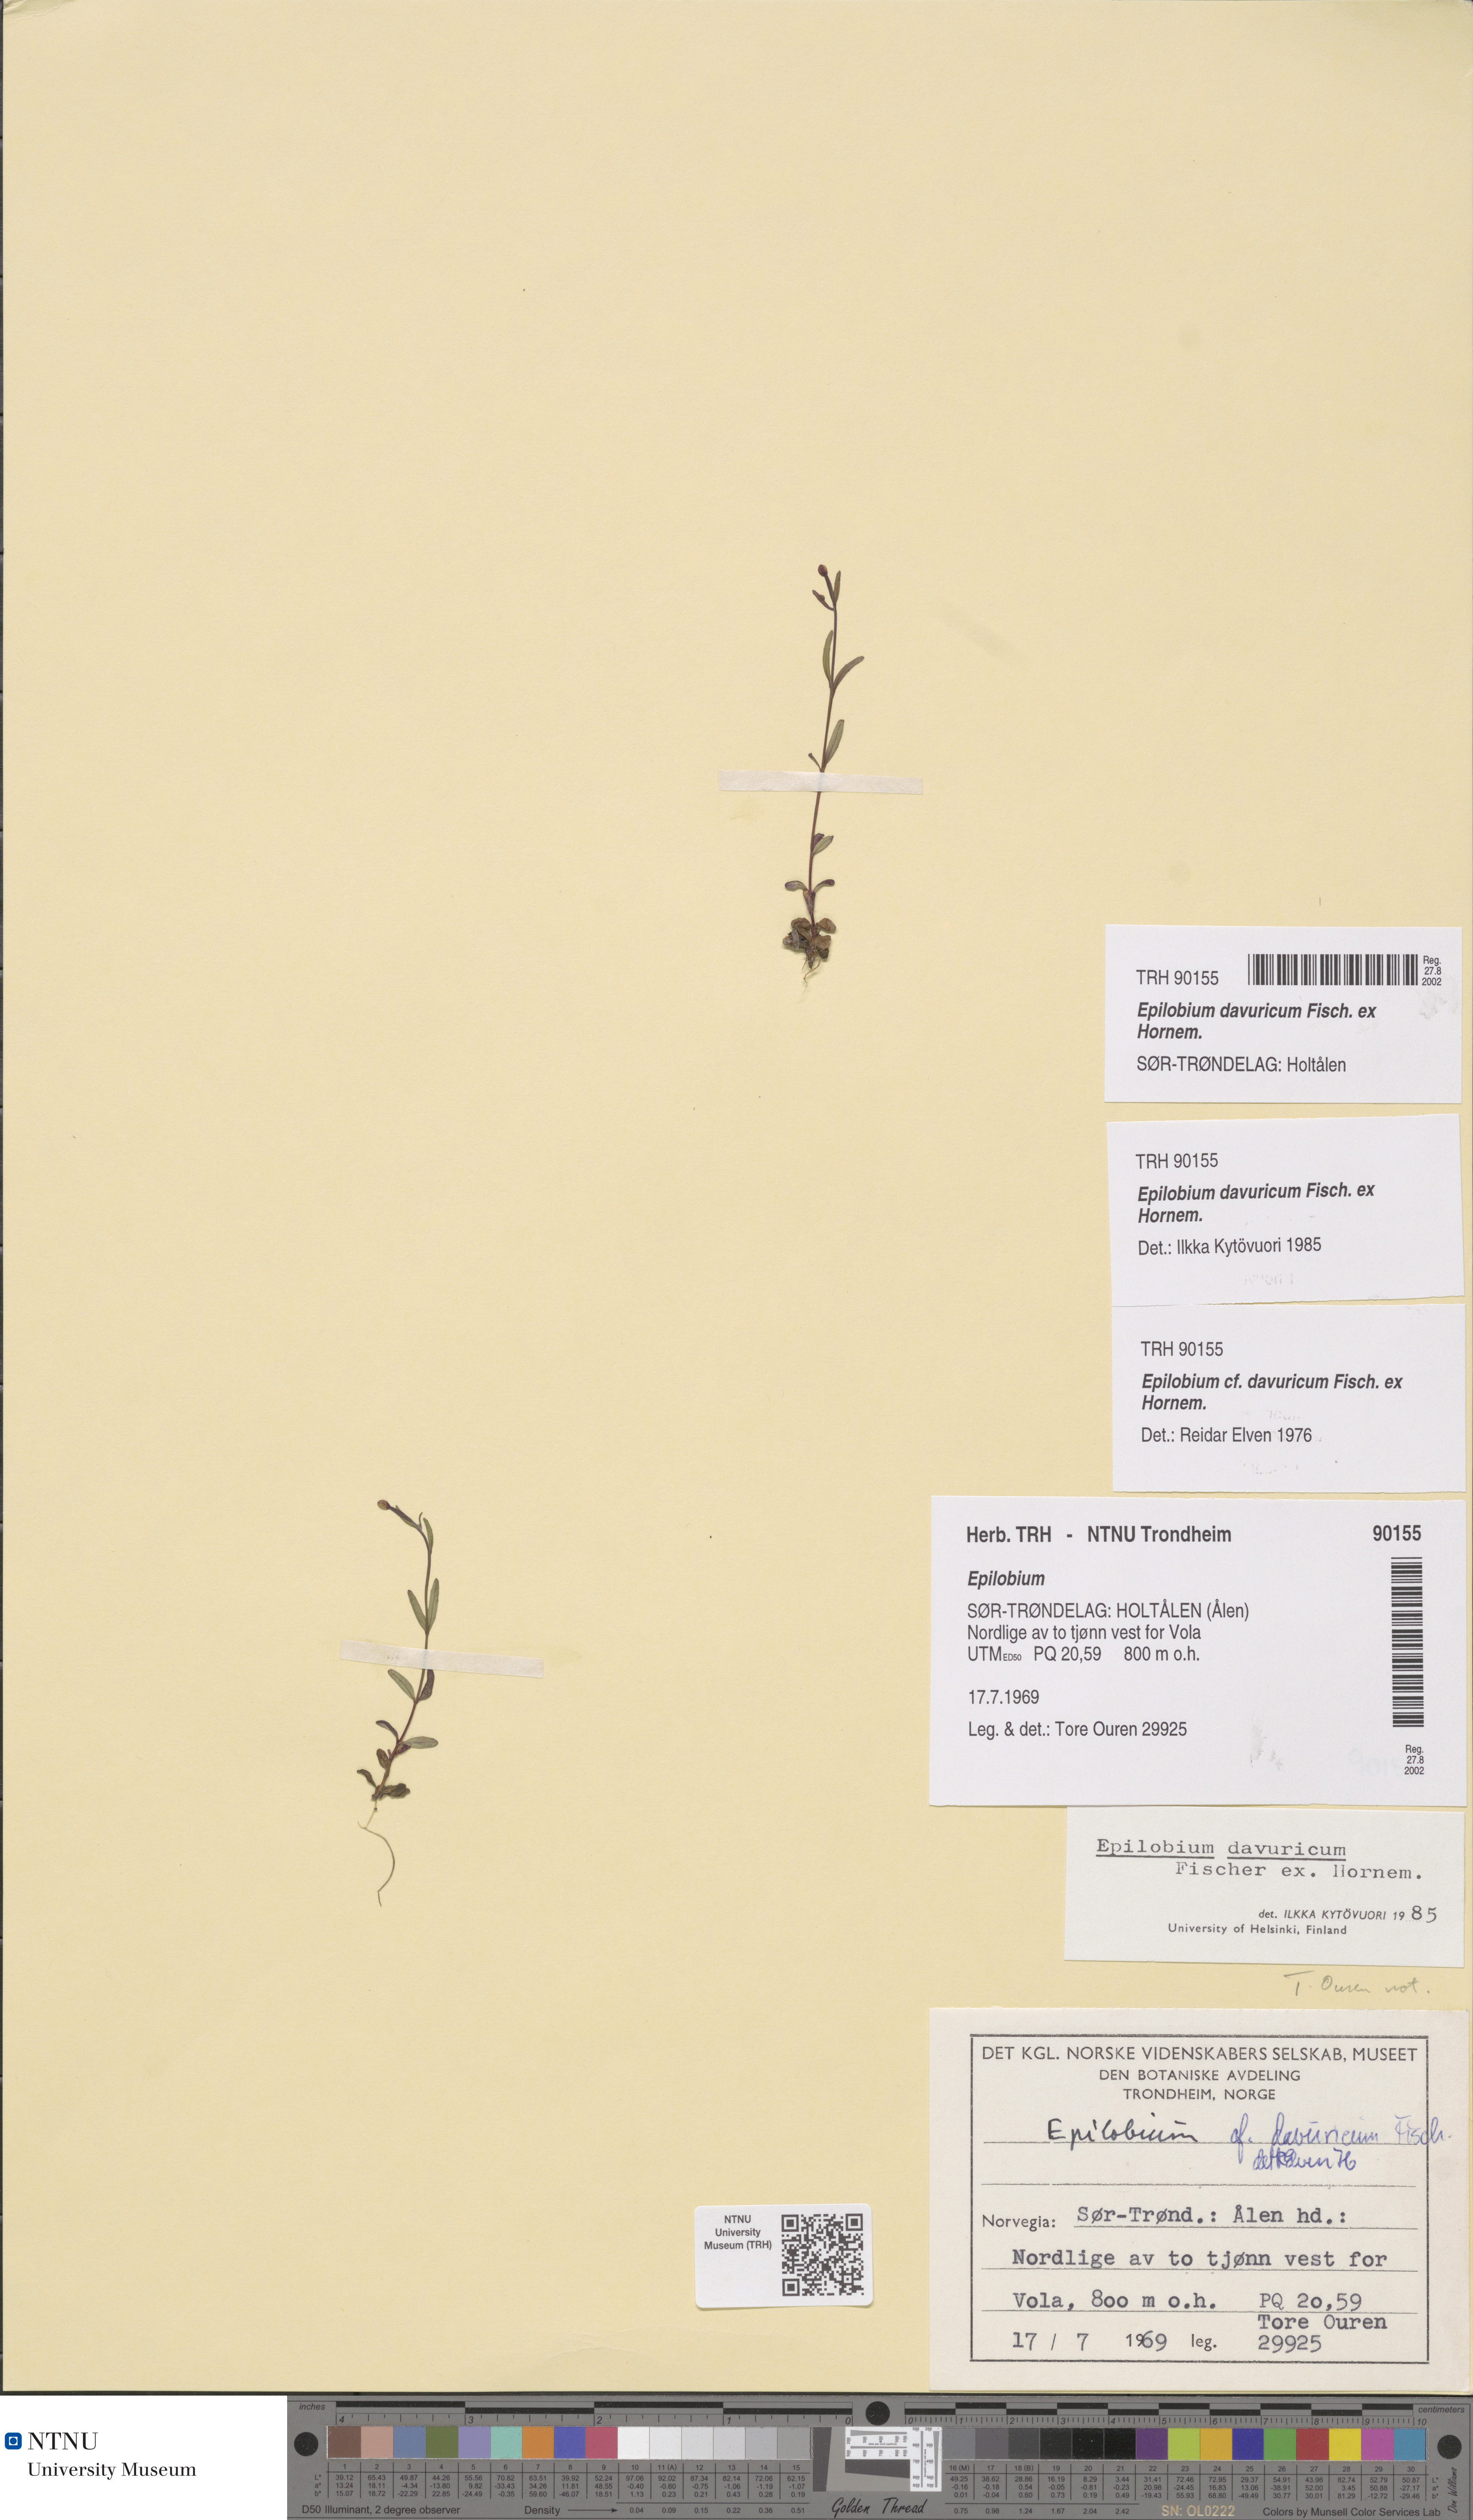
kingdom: Plantae
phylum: Tracheophyta
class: Magnoliopsida
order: Myrtales
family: Onagraceae
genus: Epilobium
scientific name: Epilobium davuricum
